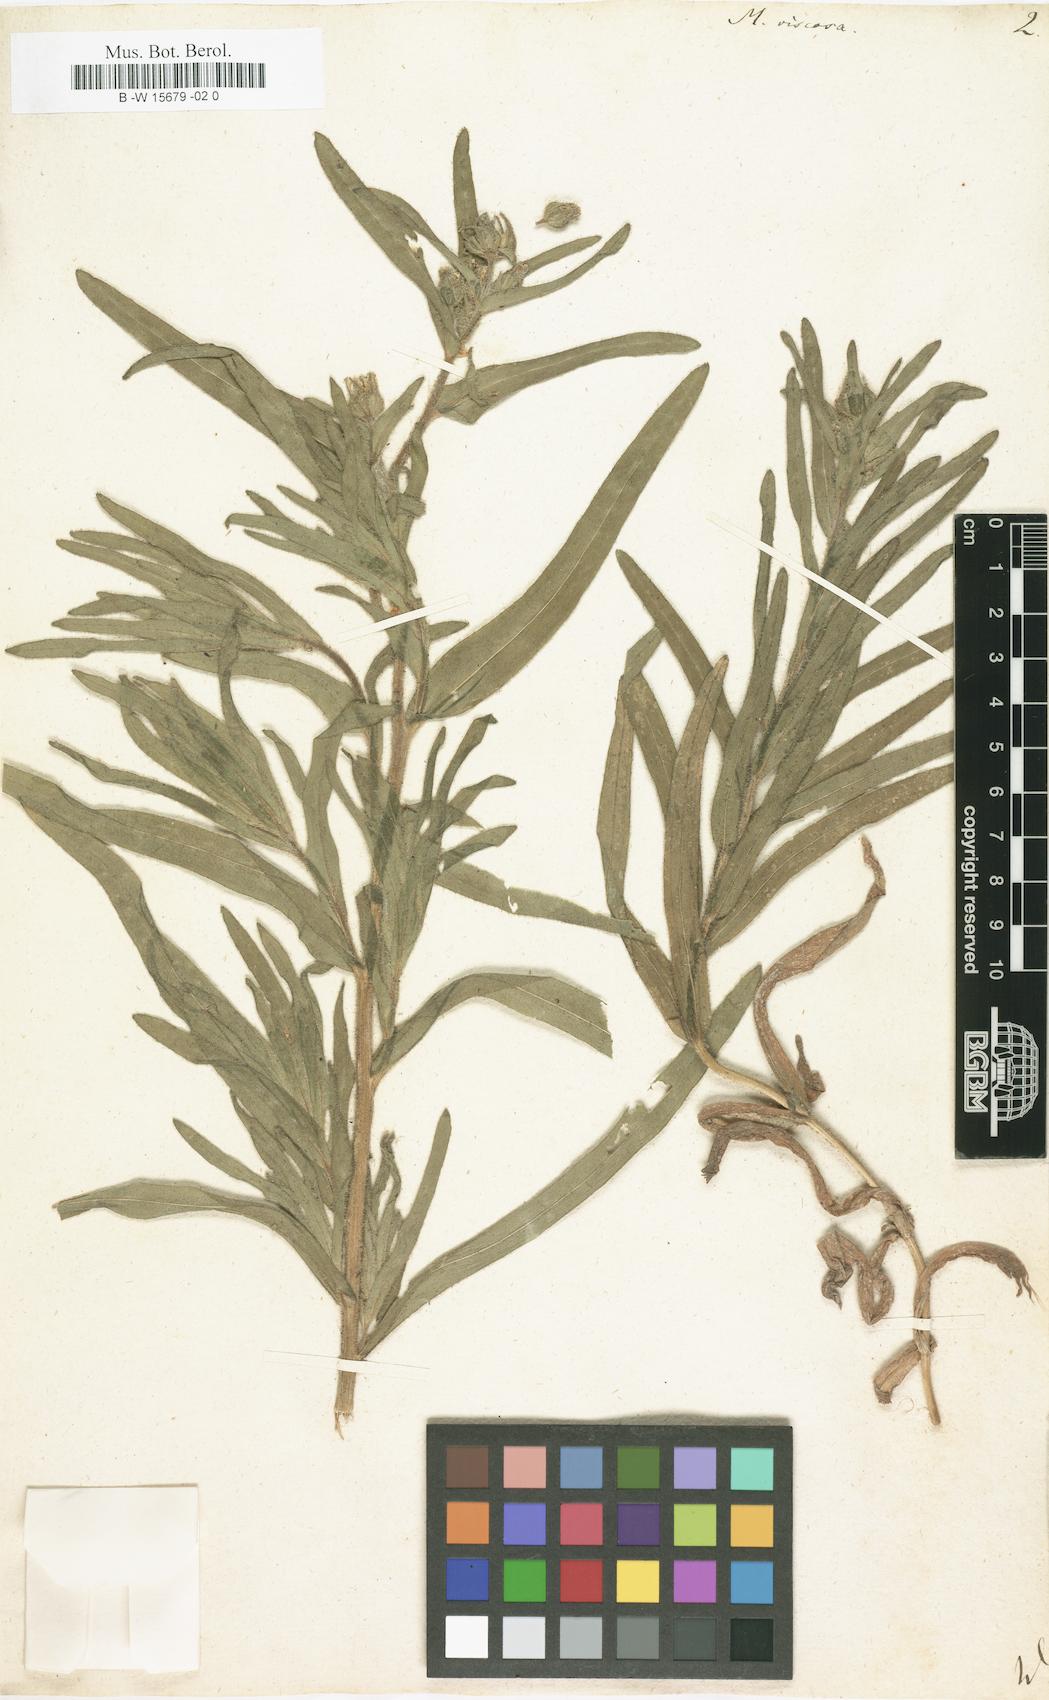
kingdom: Plantae
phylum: Tracheophyta
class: Magnoliopsida
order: Asterales
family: Asteraceae
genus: Madia
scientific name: Madia sativa
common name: Coast tarweed
